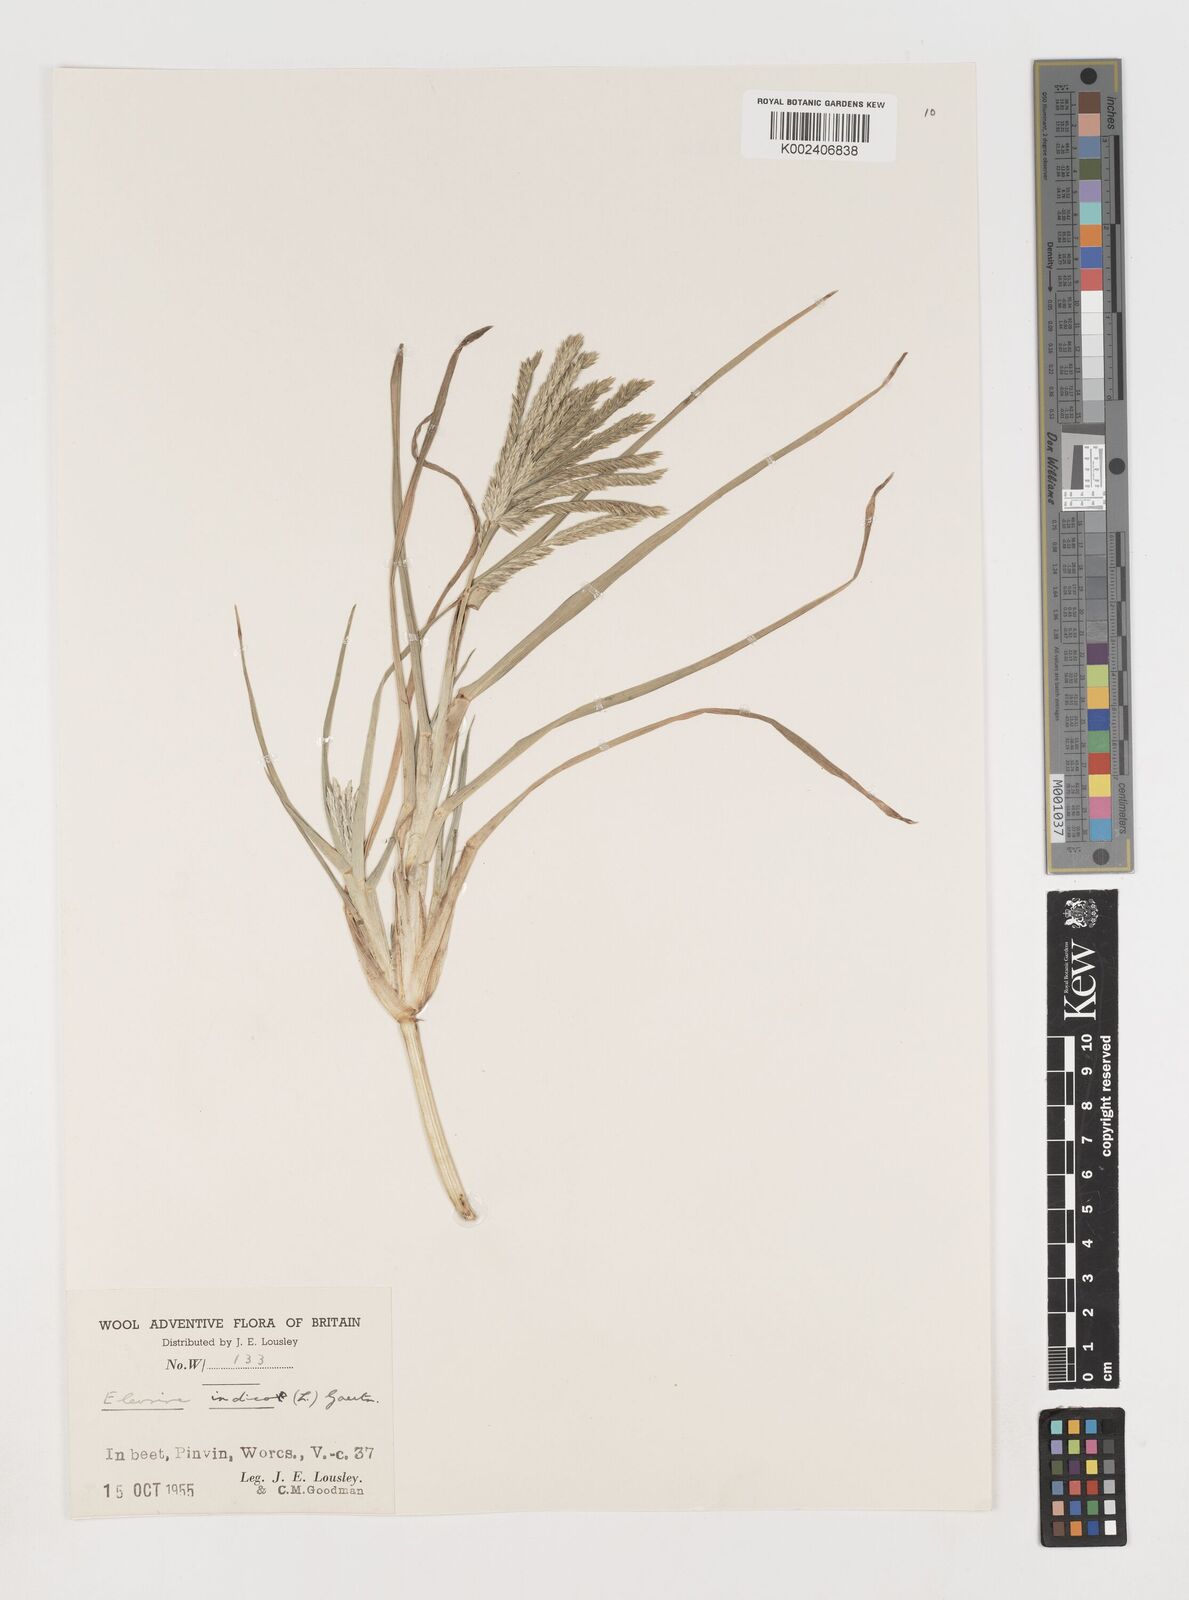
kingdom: Plantae
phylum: Tracheophyta
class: Liliopsida
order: Poales
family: Poaceae
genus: Eleusine
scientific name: Eleusine africana
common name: Wild african finger millet
